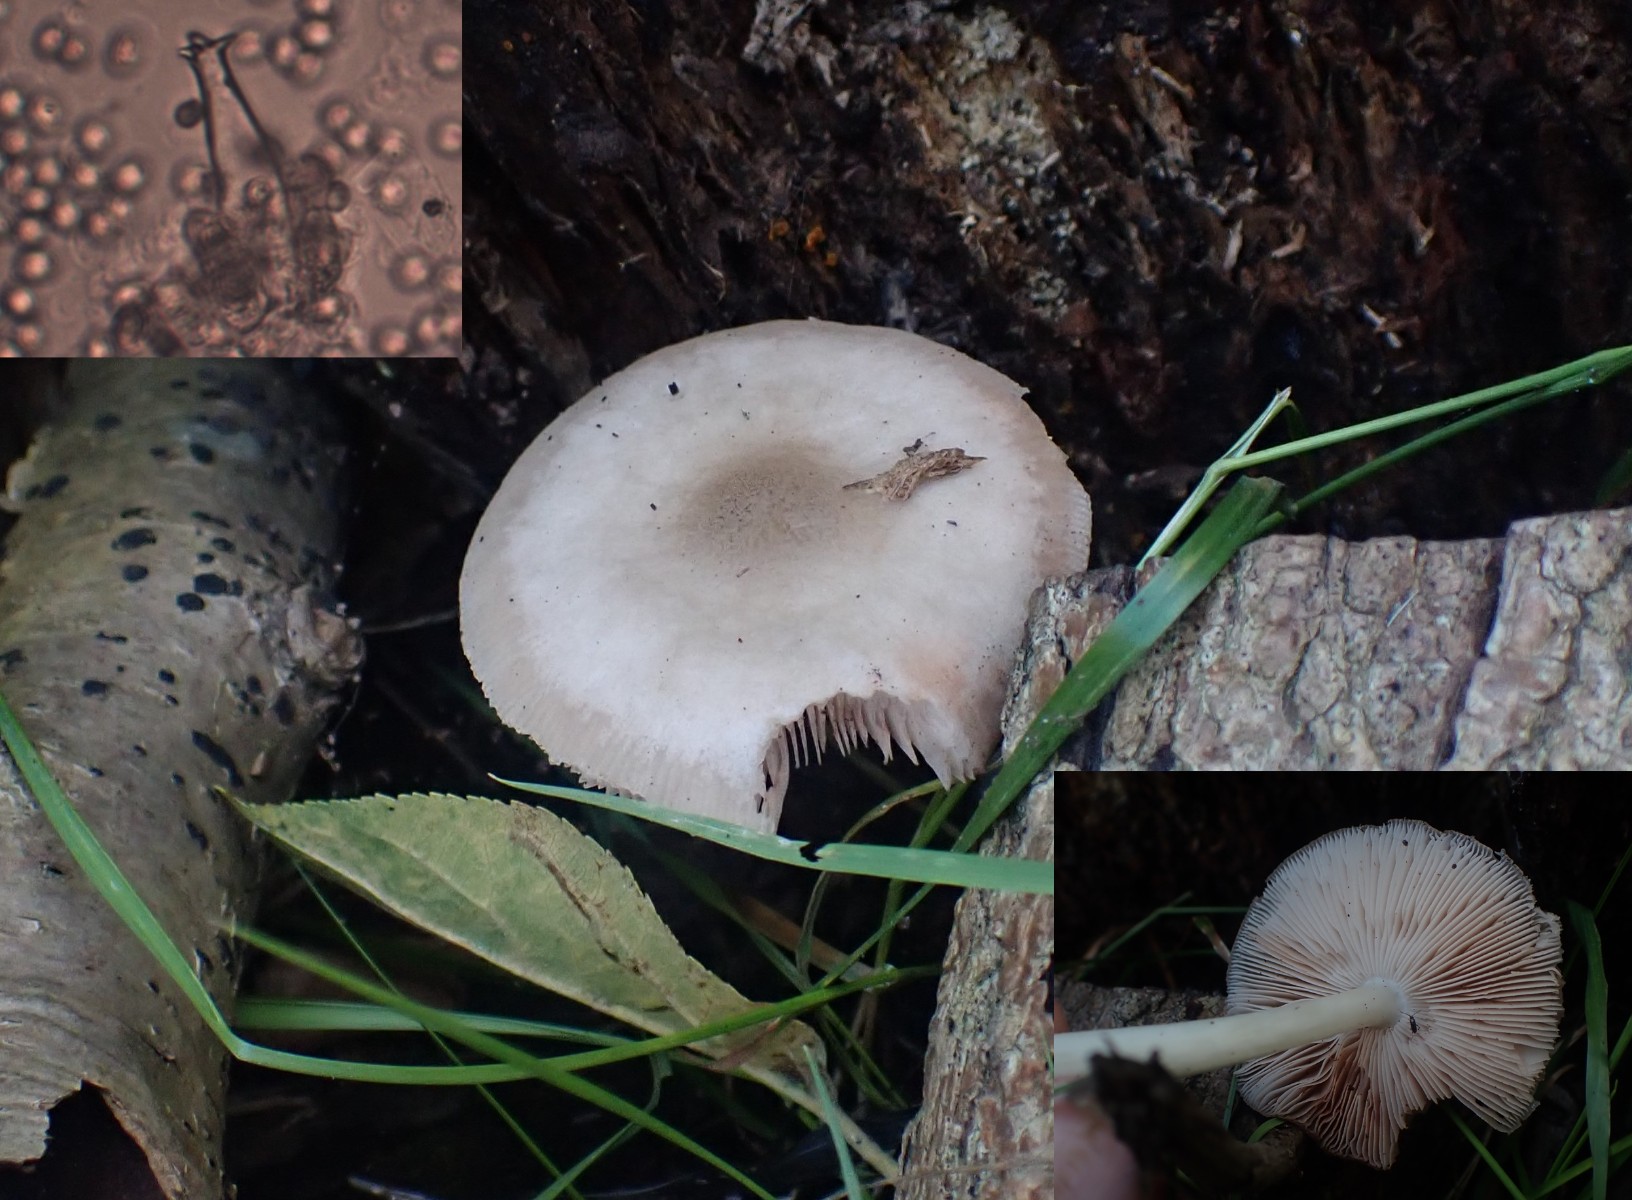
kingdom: Fungi
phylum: Basidiomycota
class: Agaricomycetes
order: Agaricales
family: Pluteaceae
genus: Pluteus
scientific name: Pluteus salicinus
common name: stiv skærmhat
